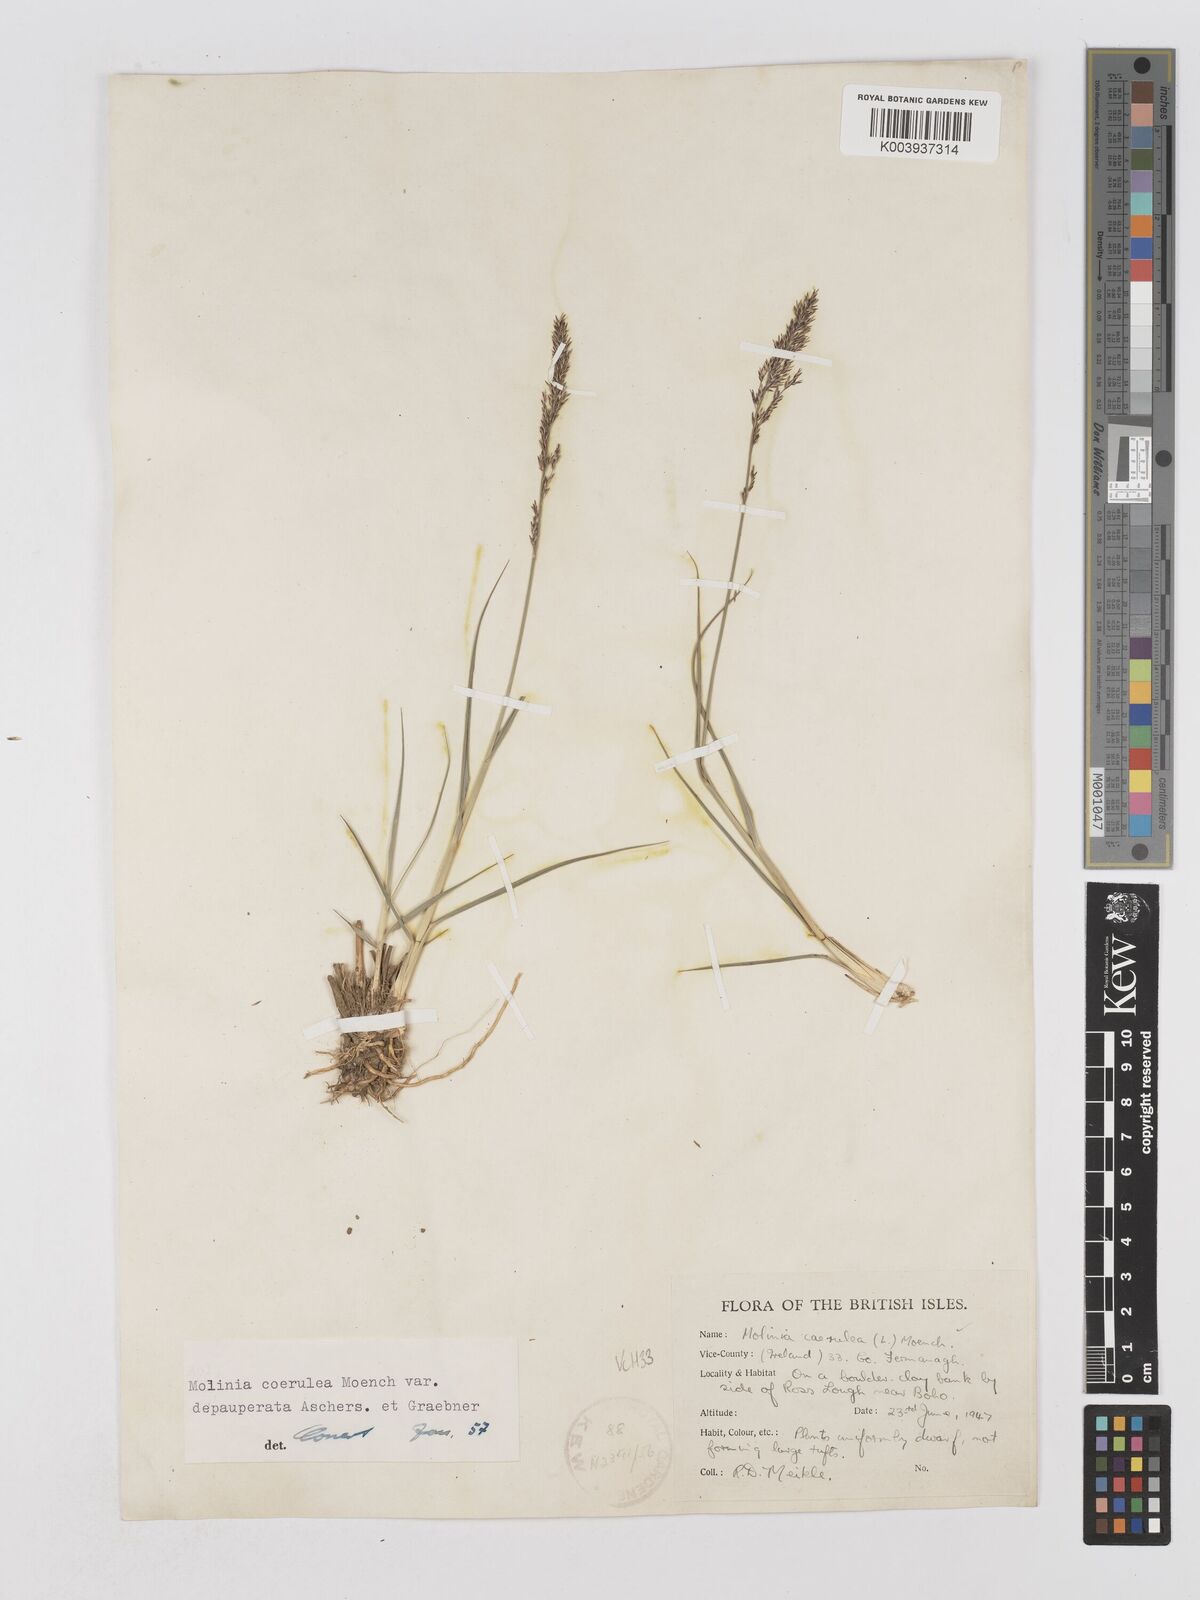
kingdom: Plantae
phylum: Tracheophyta
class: Liliopsida
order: Poales
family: Poaceae
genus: Molinia
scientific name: Molinia caerulea
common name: Purple moor-grass
